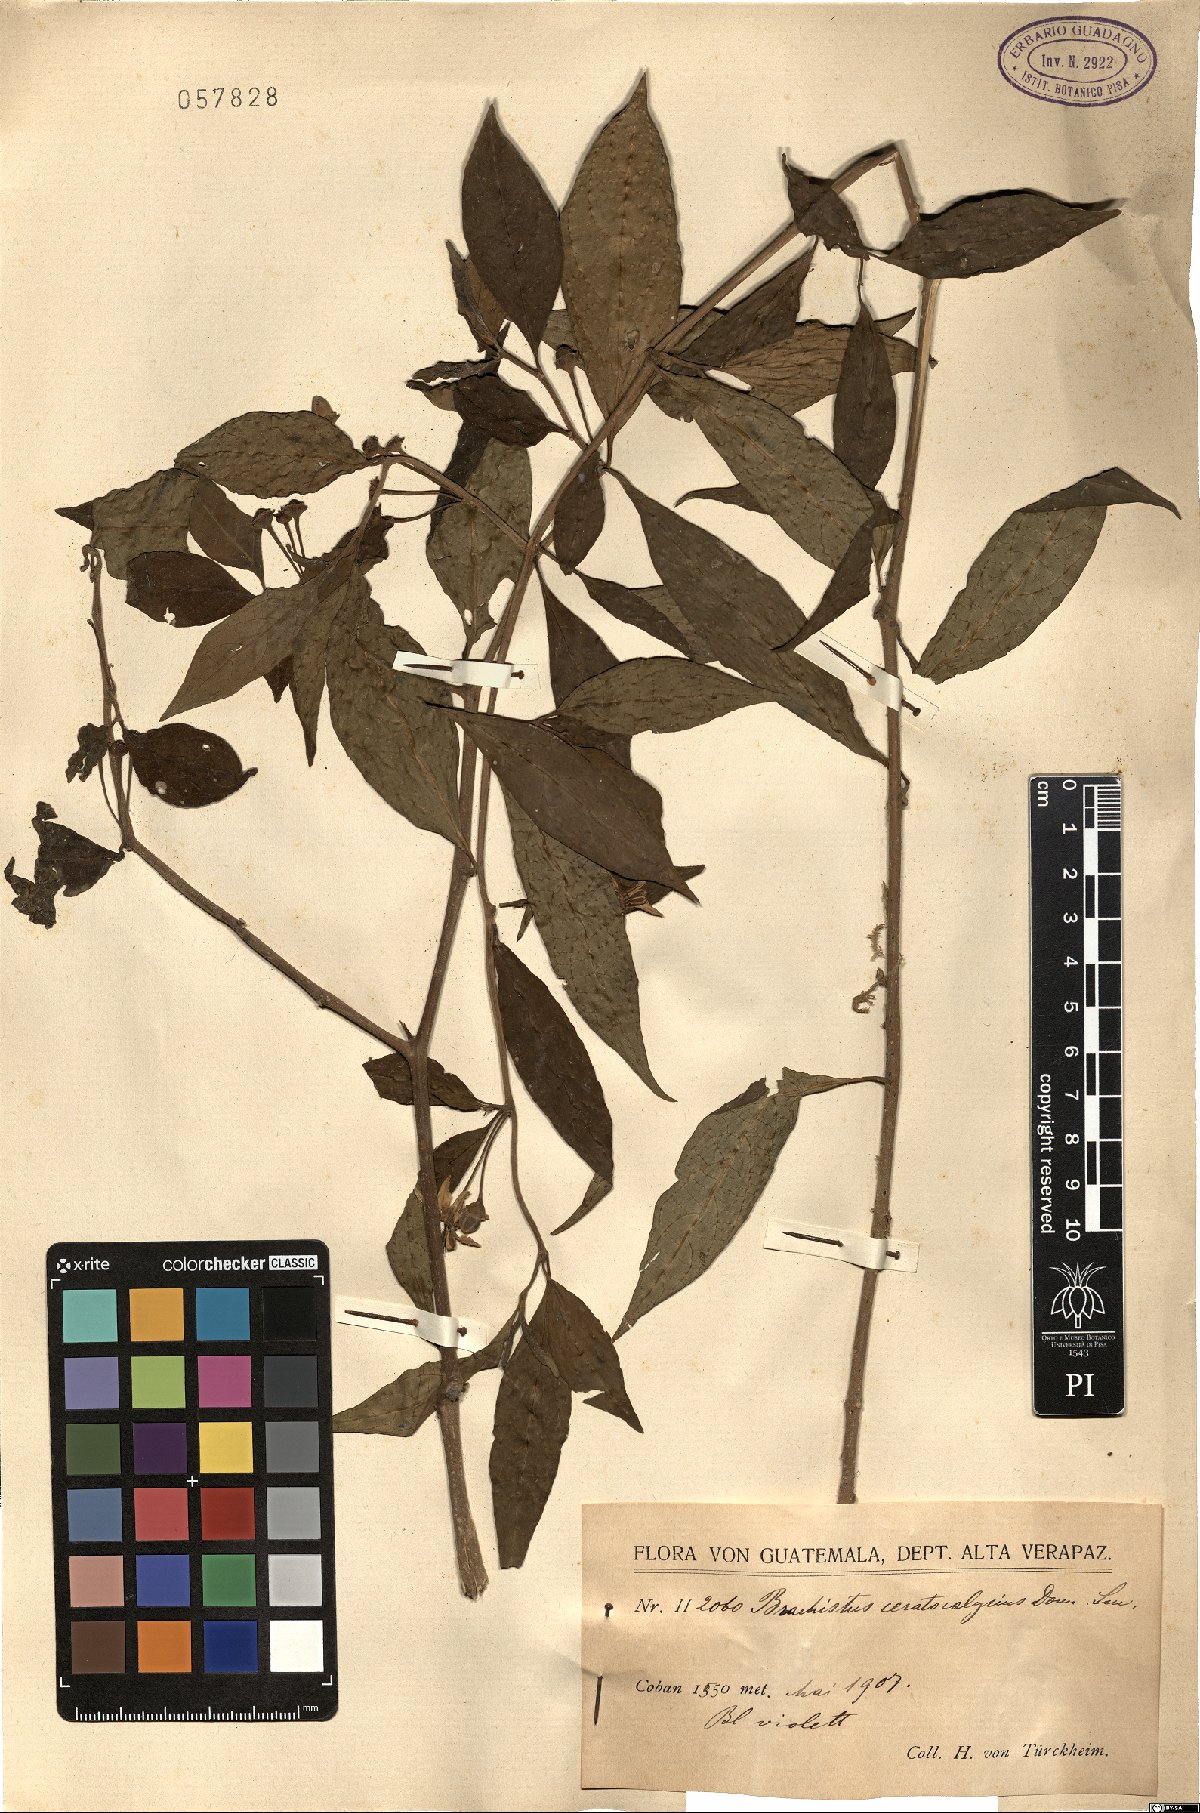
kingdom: Plantae
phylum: Tracheophyta
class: Magnoliopsida
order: Solanales
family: Solanaceae
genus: Lycianthes
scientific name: Lycianthes ceratocalycia
